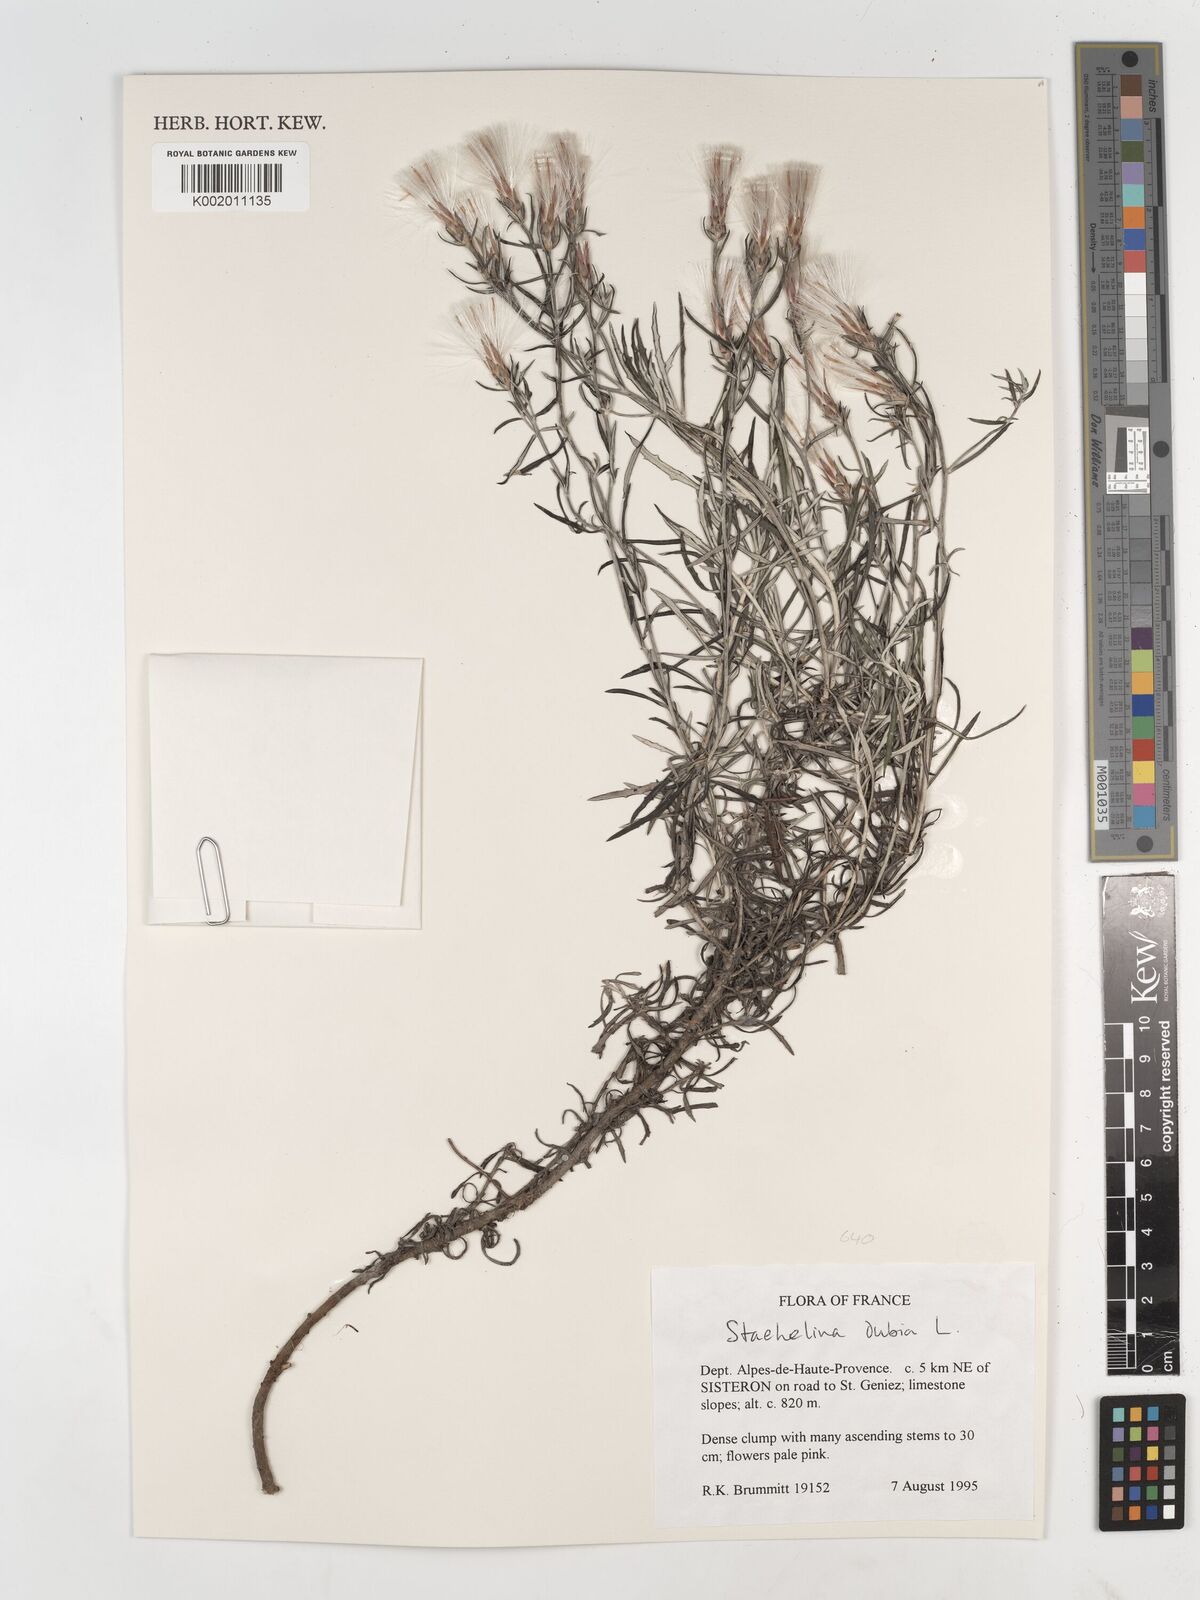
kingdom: Plantae
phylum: Tracheophyta
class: Magnoliopsida
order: Asterales
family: Asteraceae
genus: Staehelina
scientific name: Staehelina dubia
